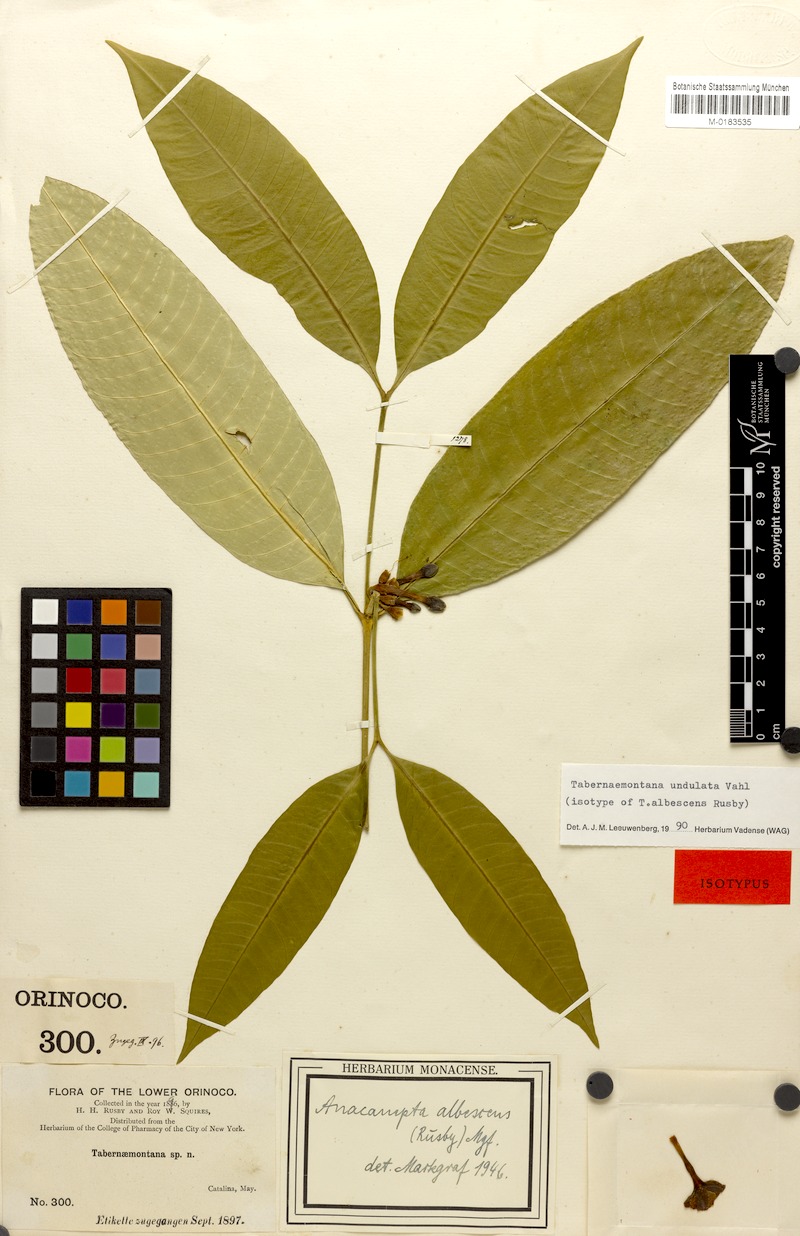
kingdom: Plantae
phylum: Tracheophyta
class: Magnoliopsida
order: Gentianales
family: Apocynaceae
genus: Tabernaemontana
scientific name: Tabernaemontana undulata
